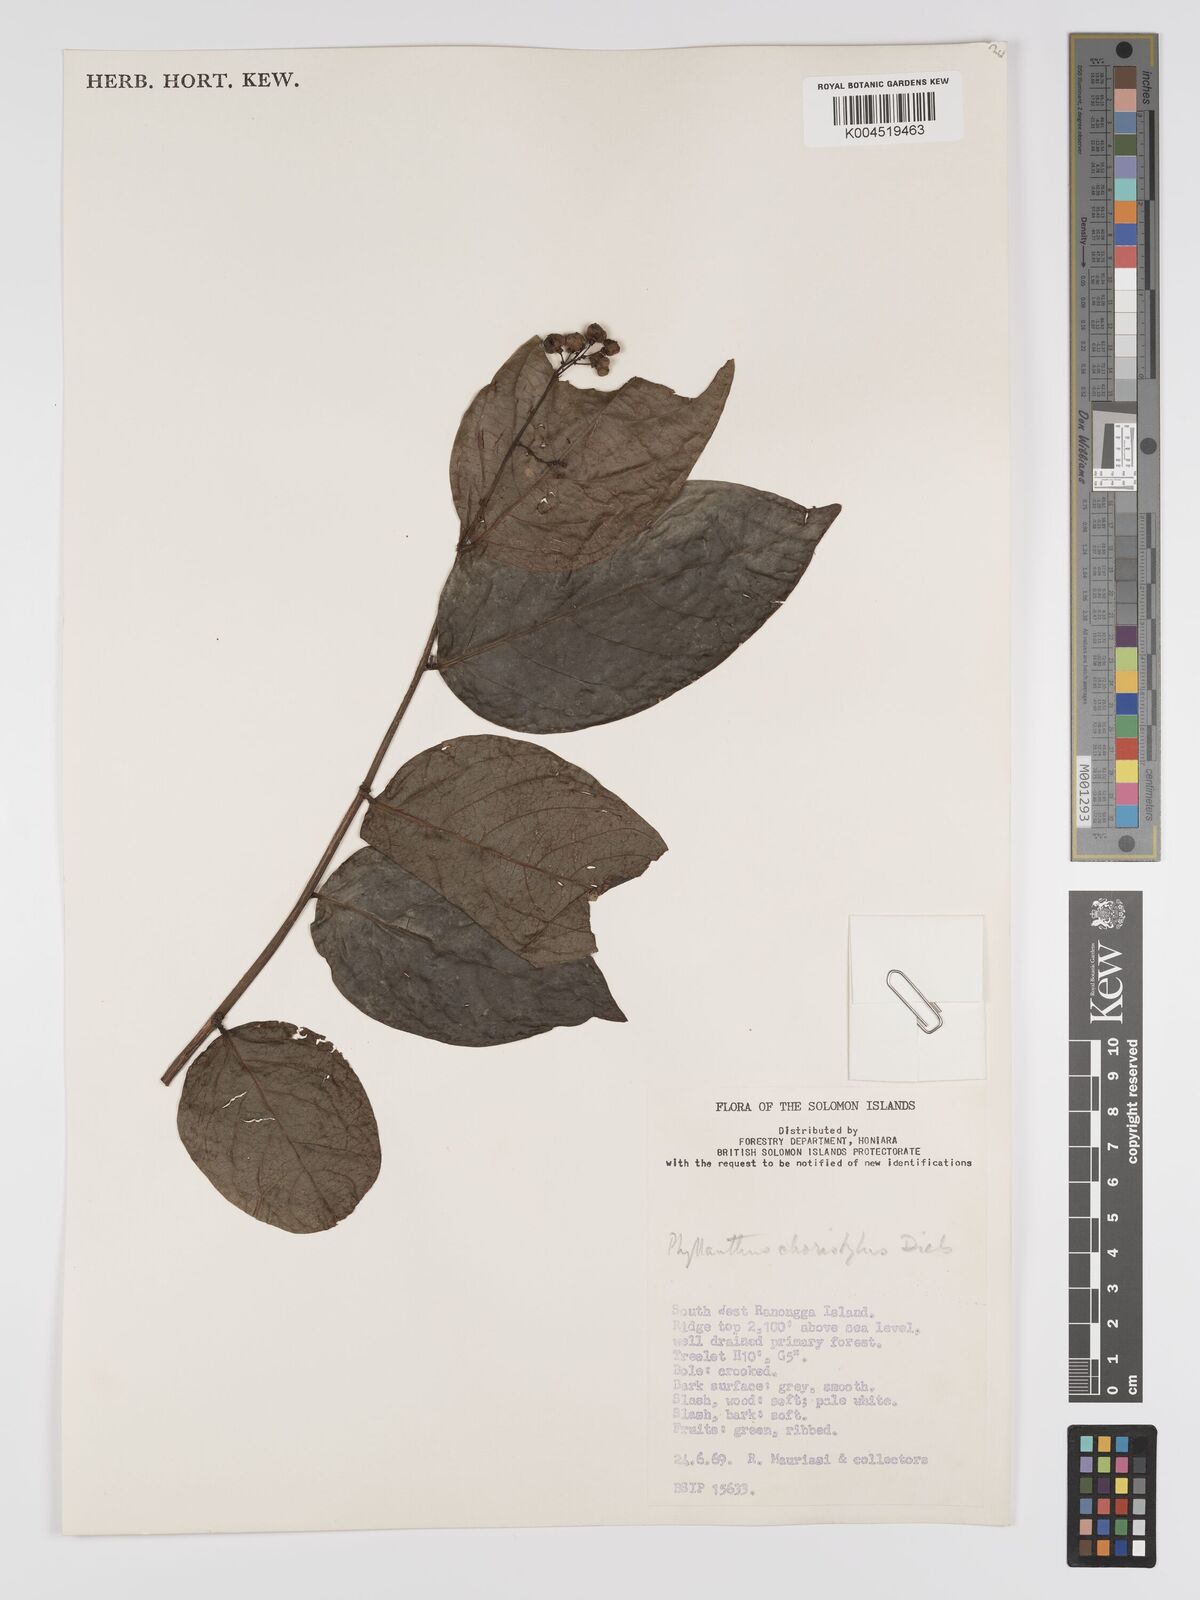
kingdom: Plantae
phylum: Tracheophyta
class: Magnoliopsida
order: Malpighiales
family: Phyllanthaceae
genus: Phyllanthus
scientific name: Phyllanthus clamboides
